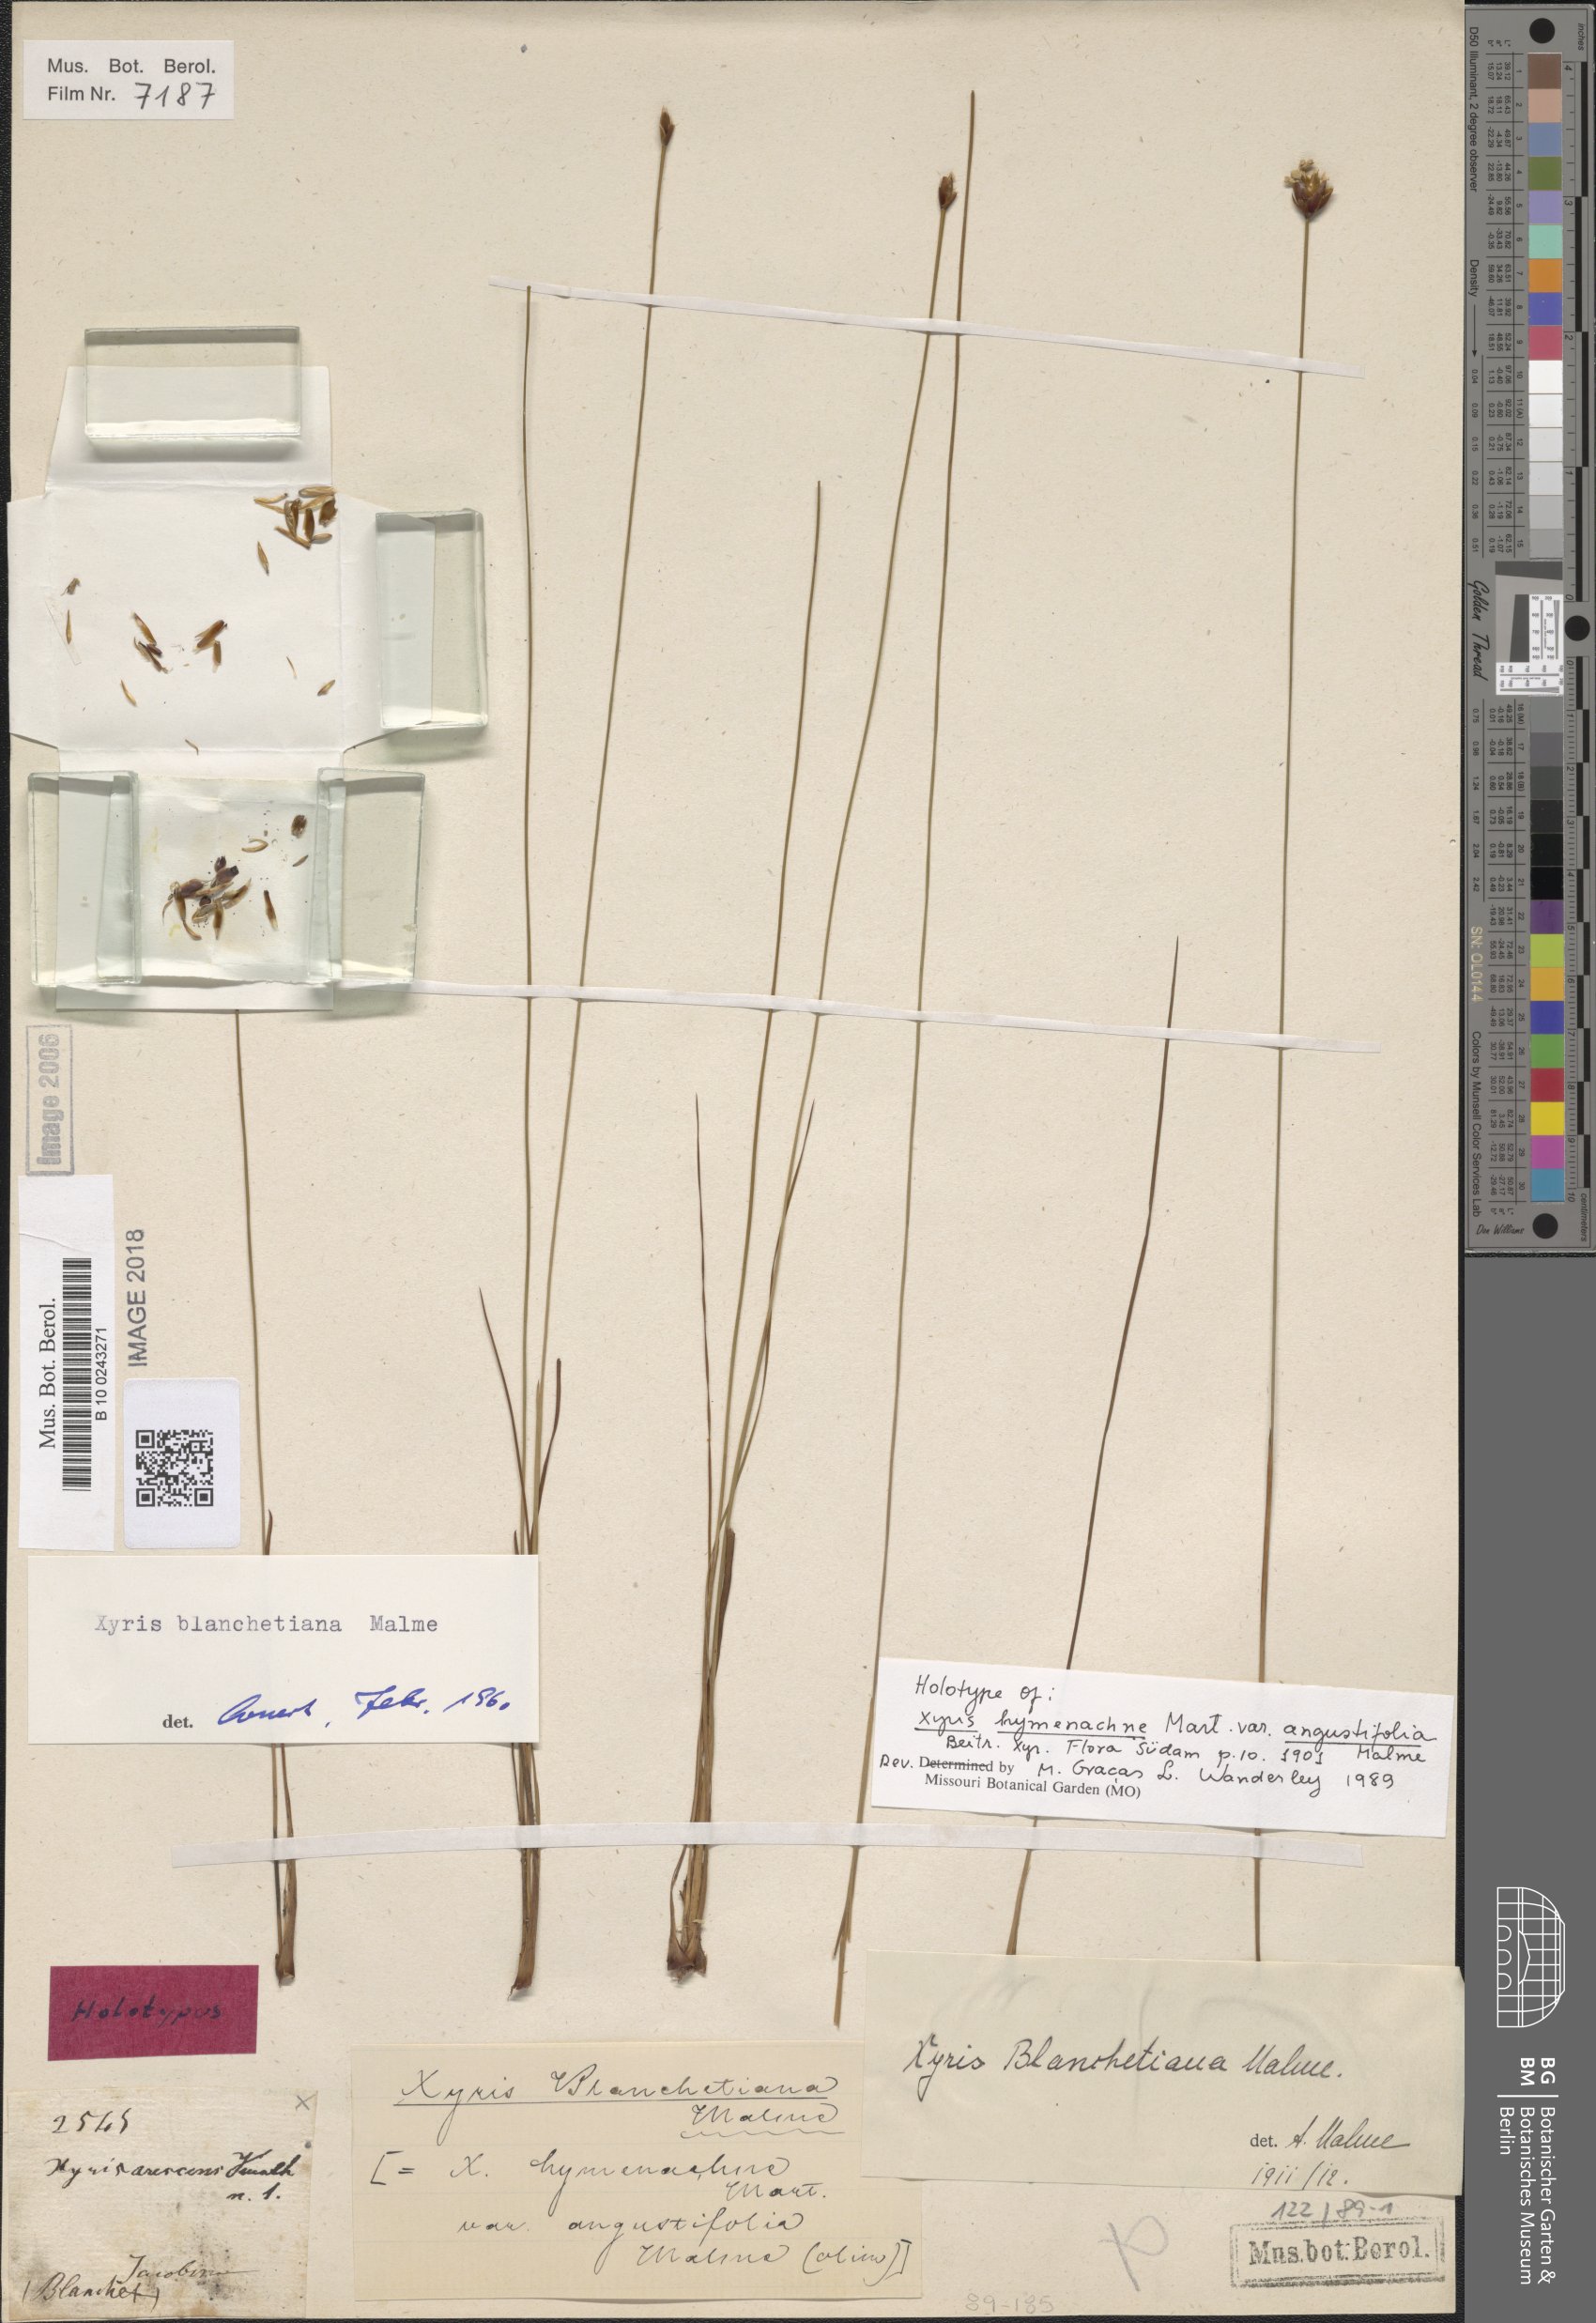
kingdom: Plantae
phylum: Tracheophyta
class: Liliopsida
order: Poales
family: Xyridaceae
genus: Xyris
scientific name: Xyris blanchetiana
